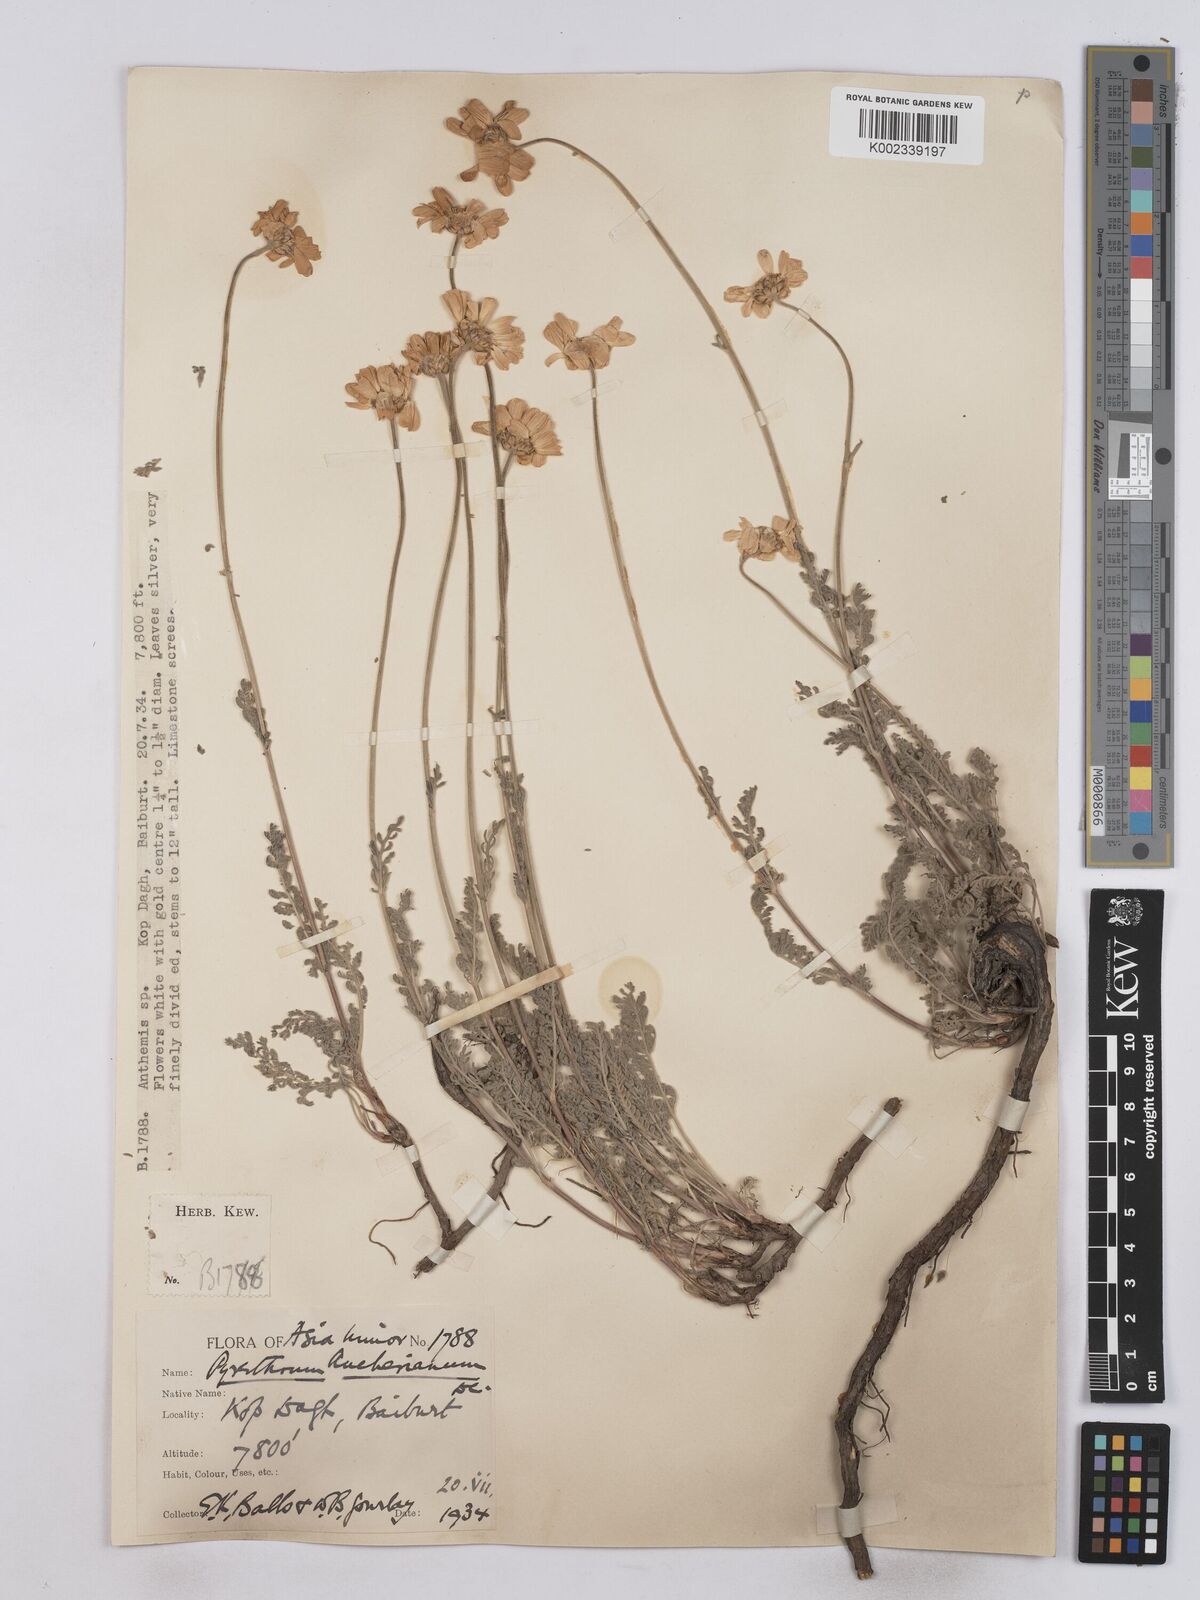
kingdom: Plantae
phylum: Tracheophyta
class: Magnoliopsida
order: Asterales
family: Asteraceae
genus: Tanacetum
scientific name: Tanacetum aucherianum
